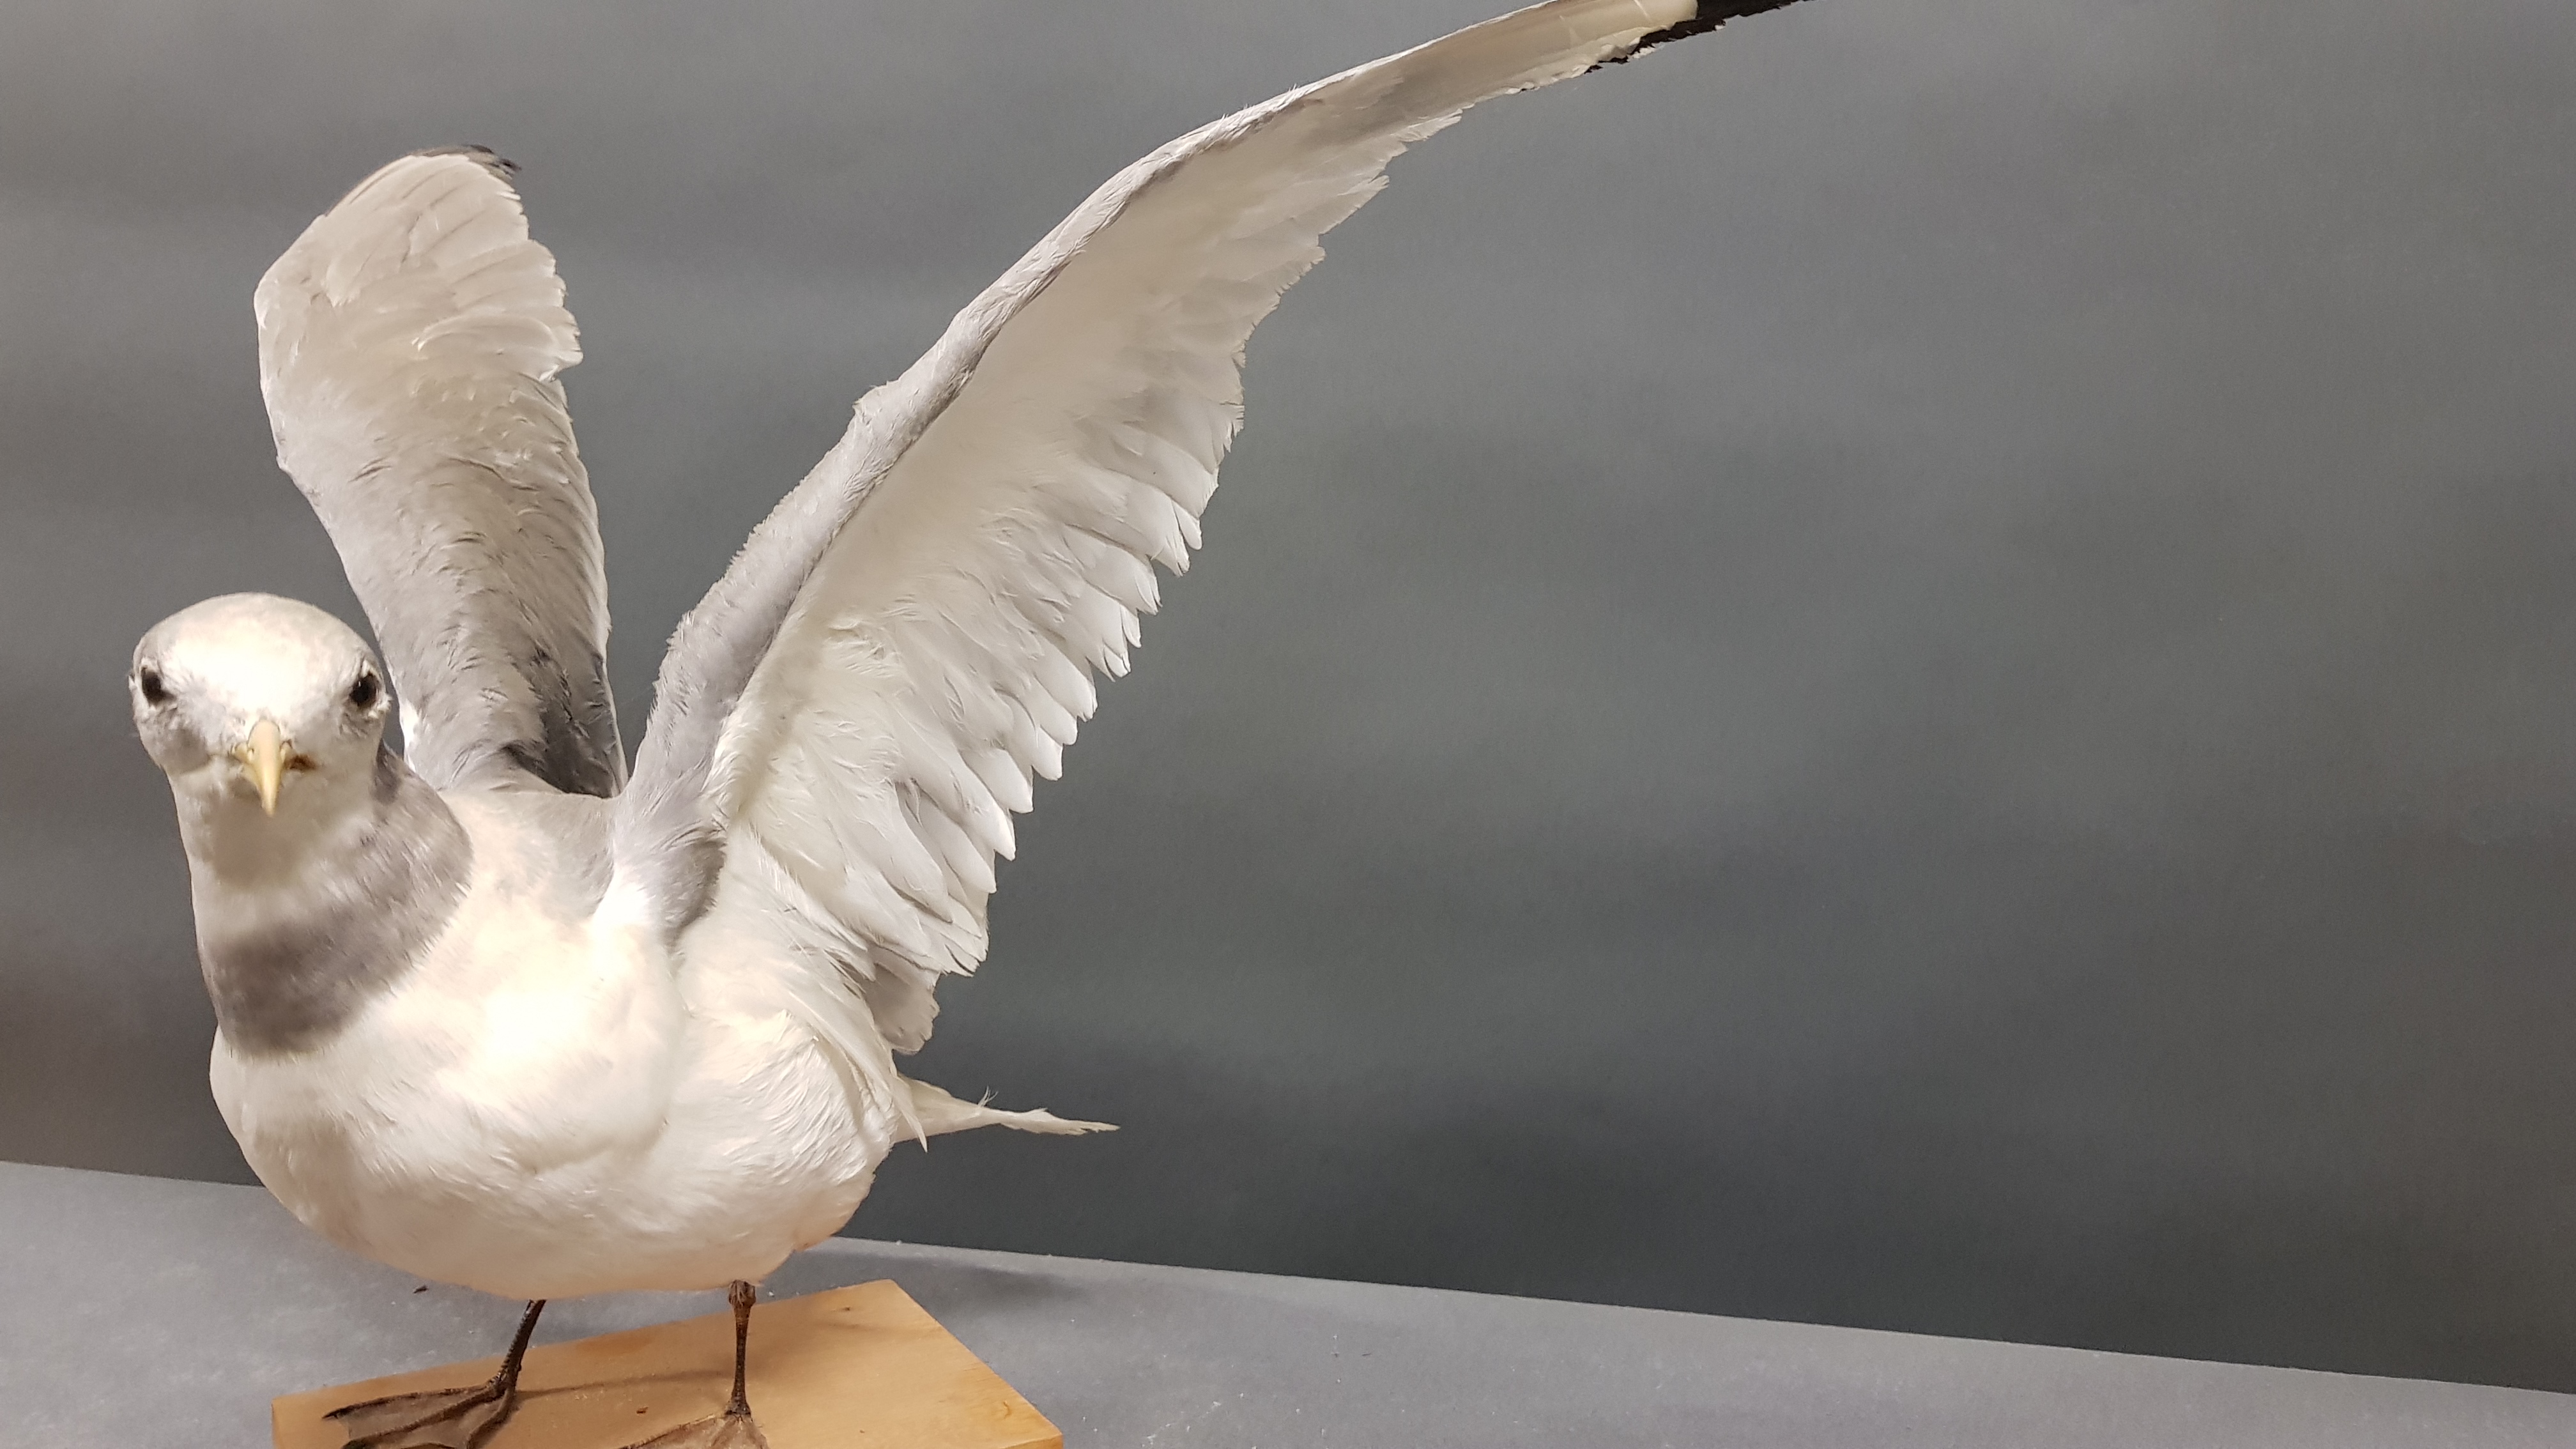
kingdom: Animalia
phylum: Chordata
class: Aves
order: Charadriiformes
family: Laridae
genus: Rissa
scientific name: Rissa tridactyla
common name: Black-legged kittiwake
